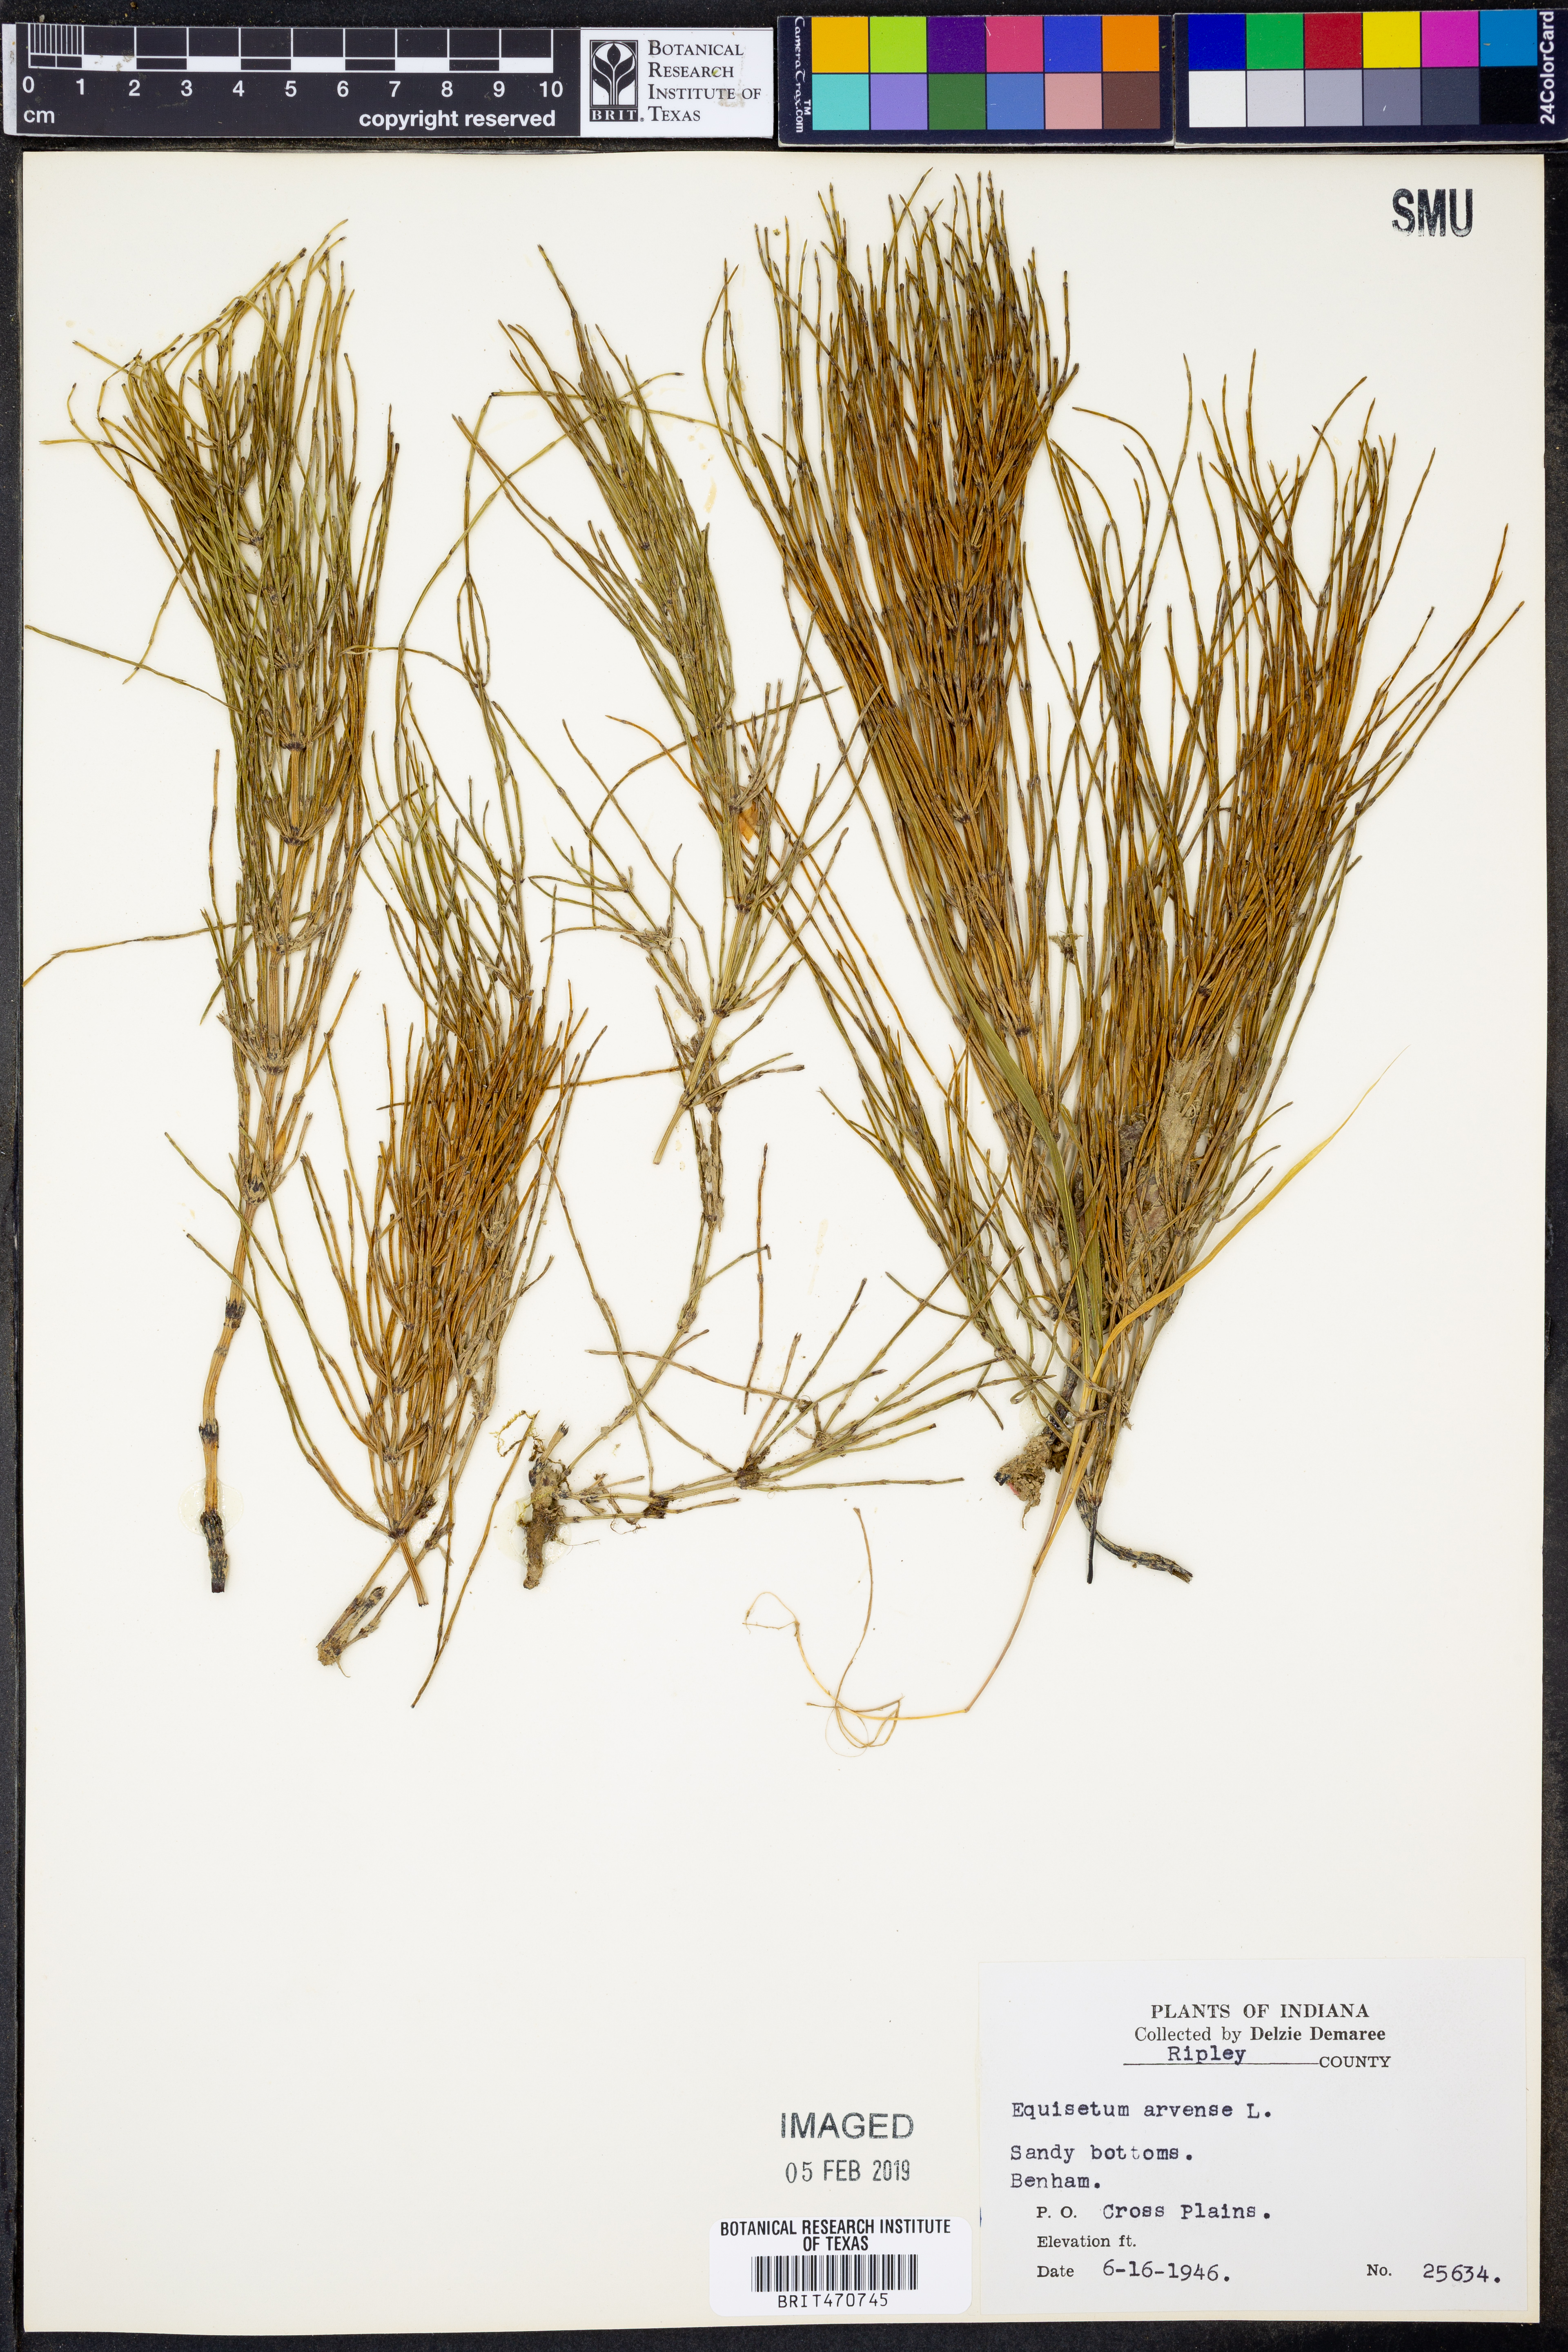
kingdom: Plantae
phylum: Tracheophyta
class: Polypodiopsida
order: Equisetales
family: Equisetaceae
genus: Equisetum
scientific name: Equisetum arvense
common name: Field horsetail
